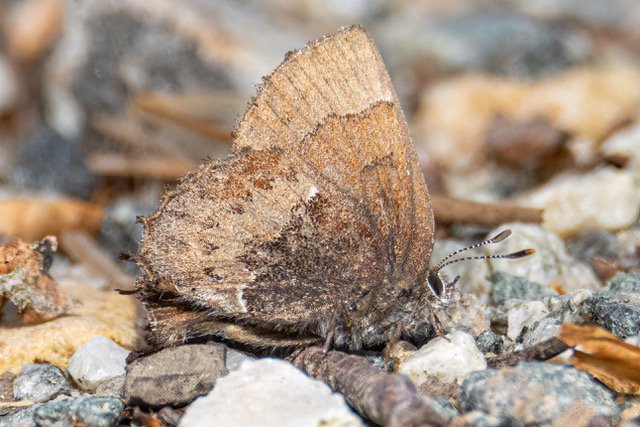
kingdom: Animalia
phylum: Arthropoda
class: Insecta
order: Lepidoptera
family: Lycaenidae
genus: Incisalia
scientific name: Incisalia henrici
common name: Henry's Elfin
